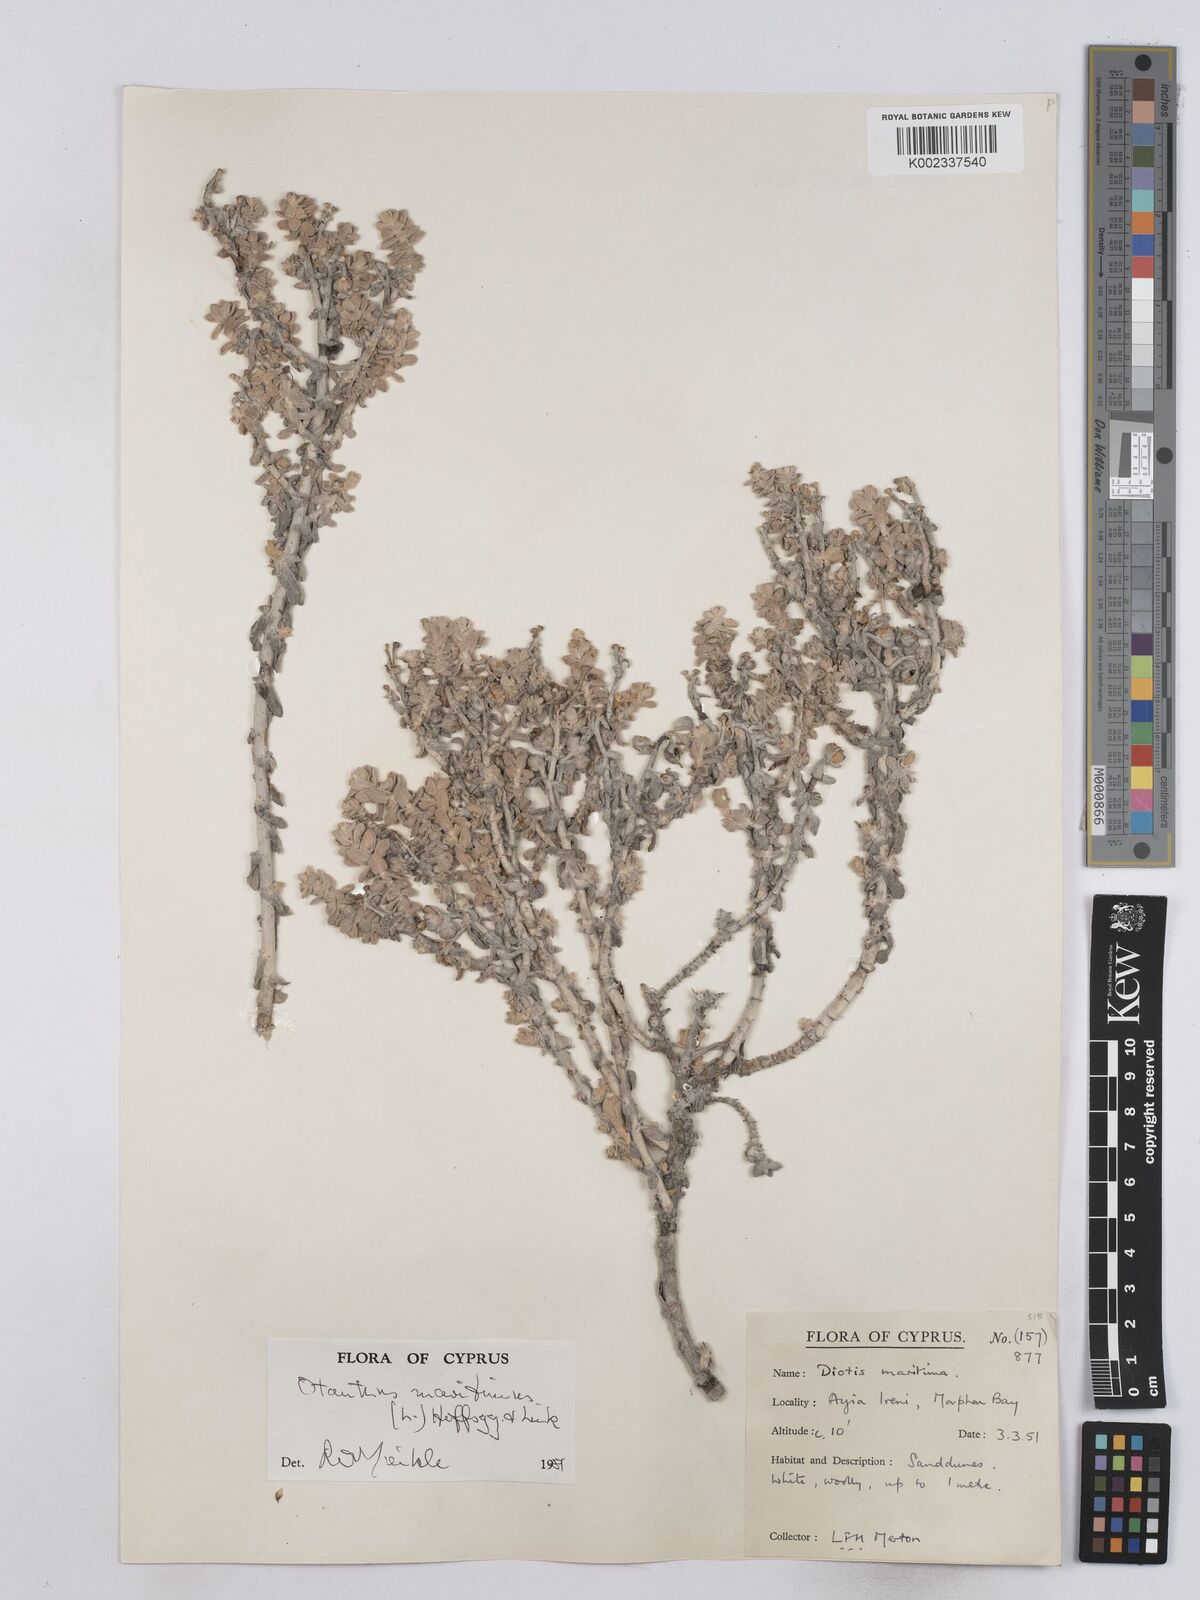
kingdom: Plantae
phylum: Tracheophyta
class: Magnoliopsida
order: Asterales
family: Asteraceae
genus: Achillea
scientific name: Achillea maritima
